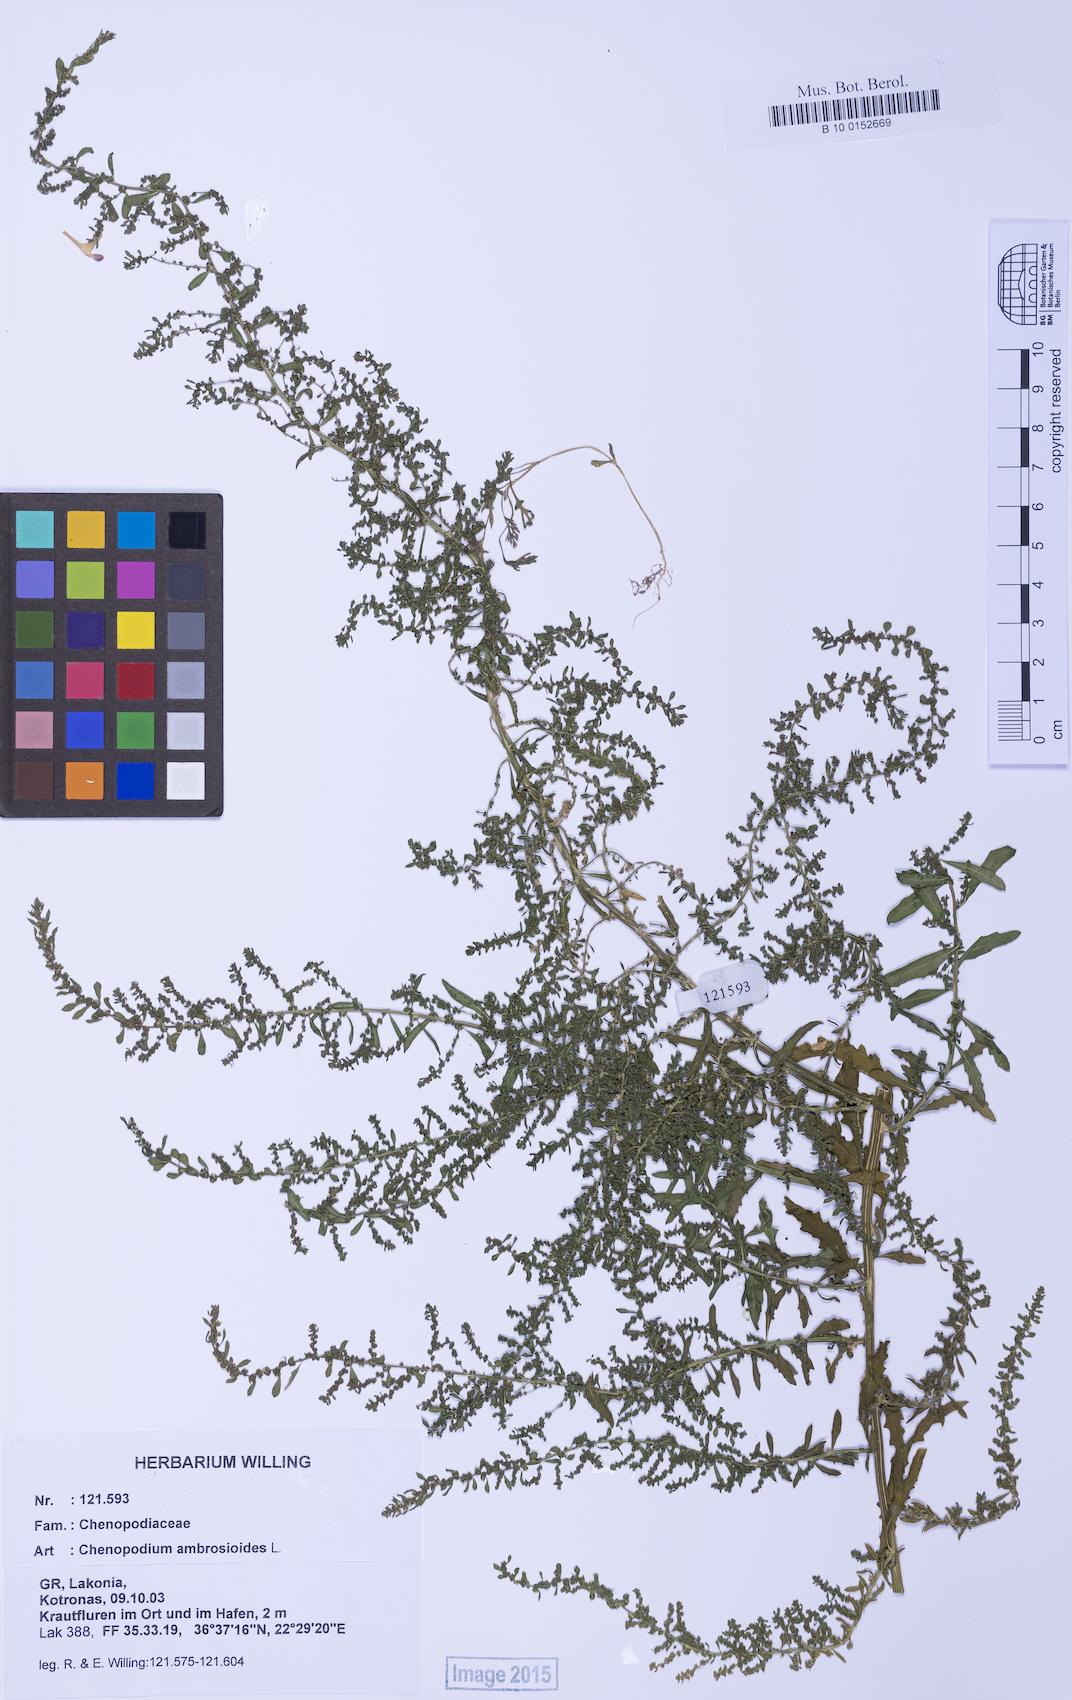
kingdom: Plantae
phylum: Tracheophyta
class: Magnoliopsida
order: Caryophyllales
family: Amaranthaceae
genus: Dysphania
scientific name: Dysphania ambrosioides
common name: Wormseed
